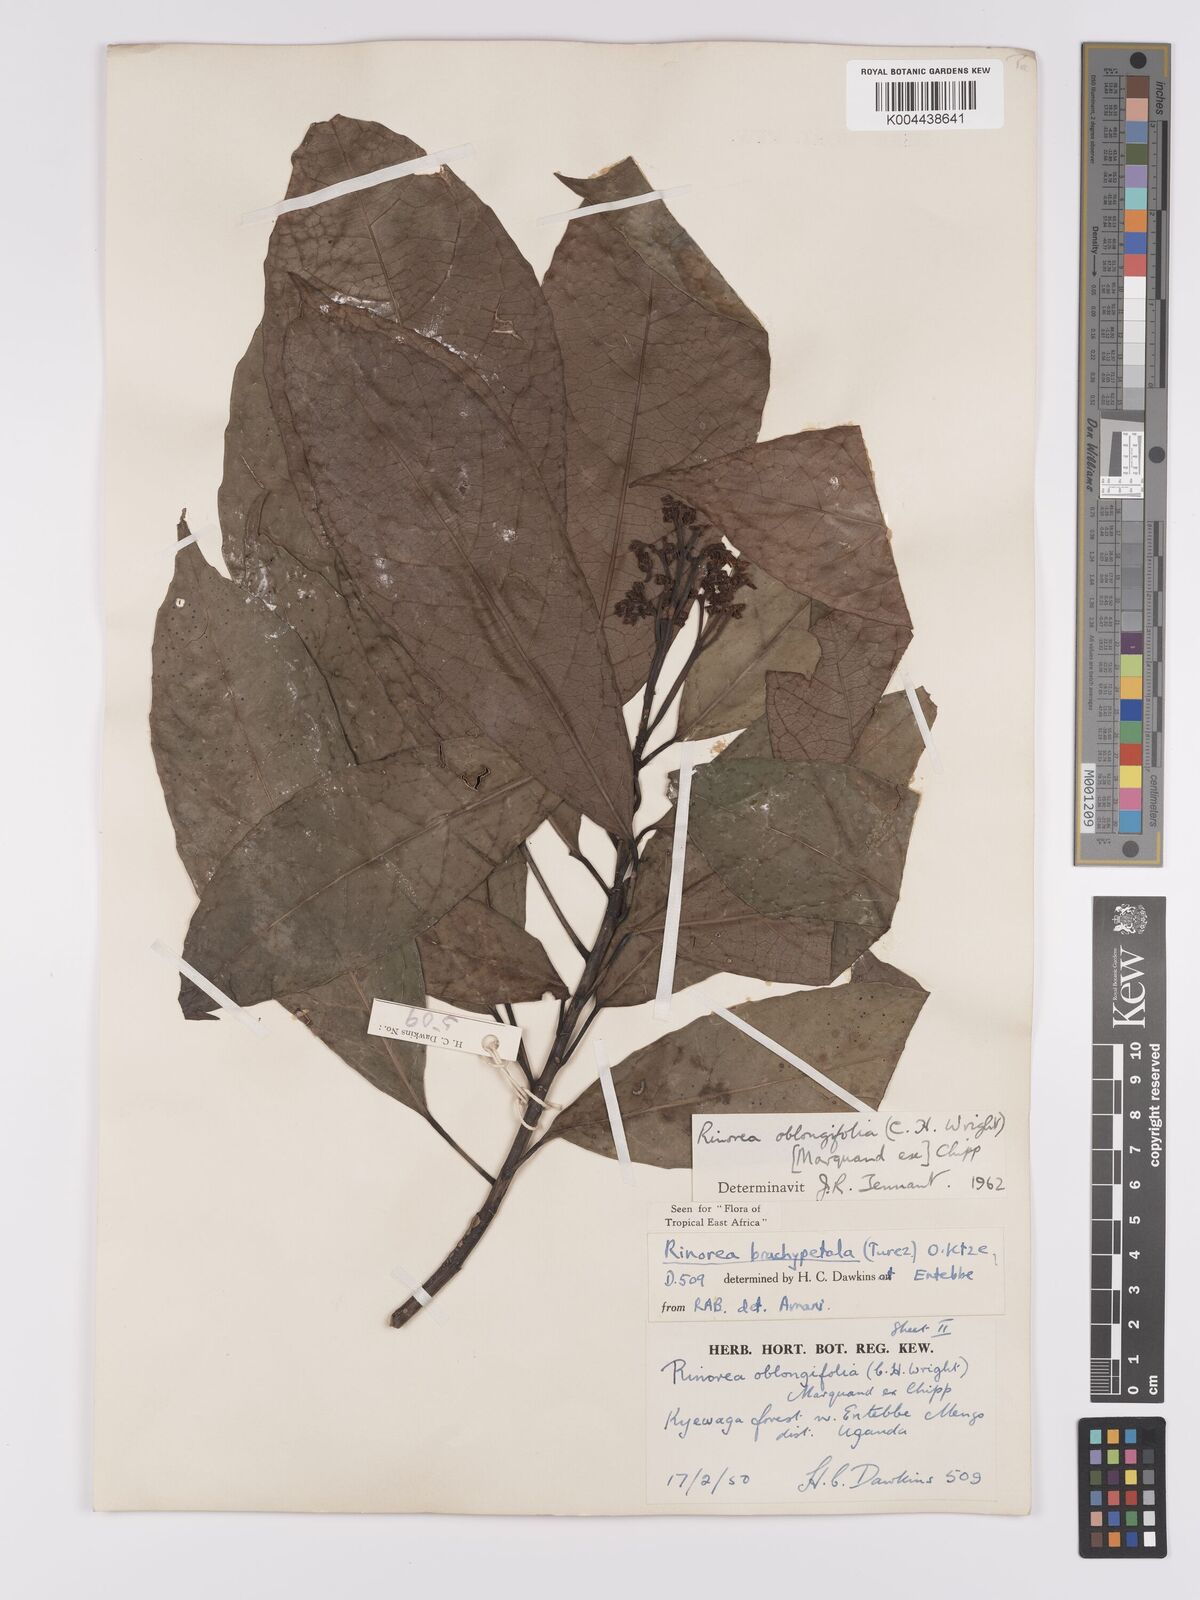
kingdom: Plantae
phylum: Tracheophyta
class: Magnoliopsida
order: Apiales
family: Pittosporaceae
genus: Marianthus
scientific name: Marianthus coeruleopunctatus
